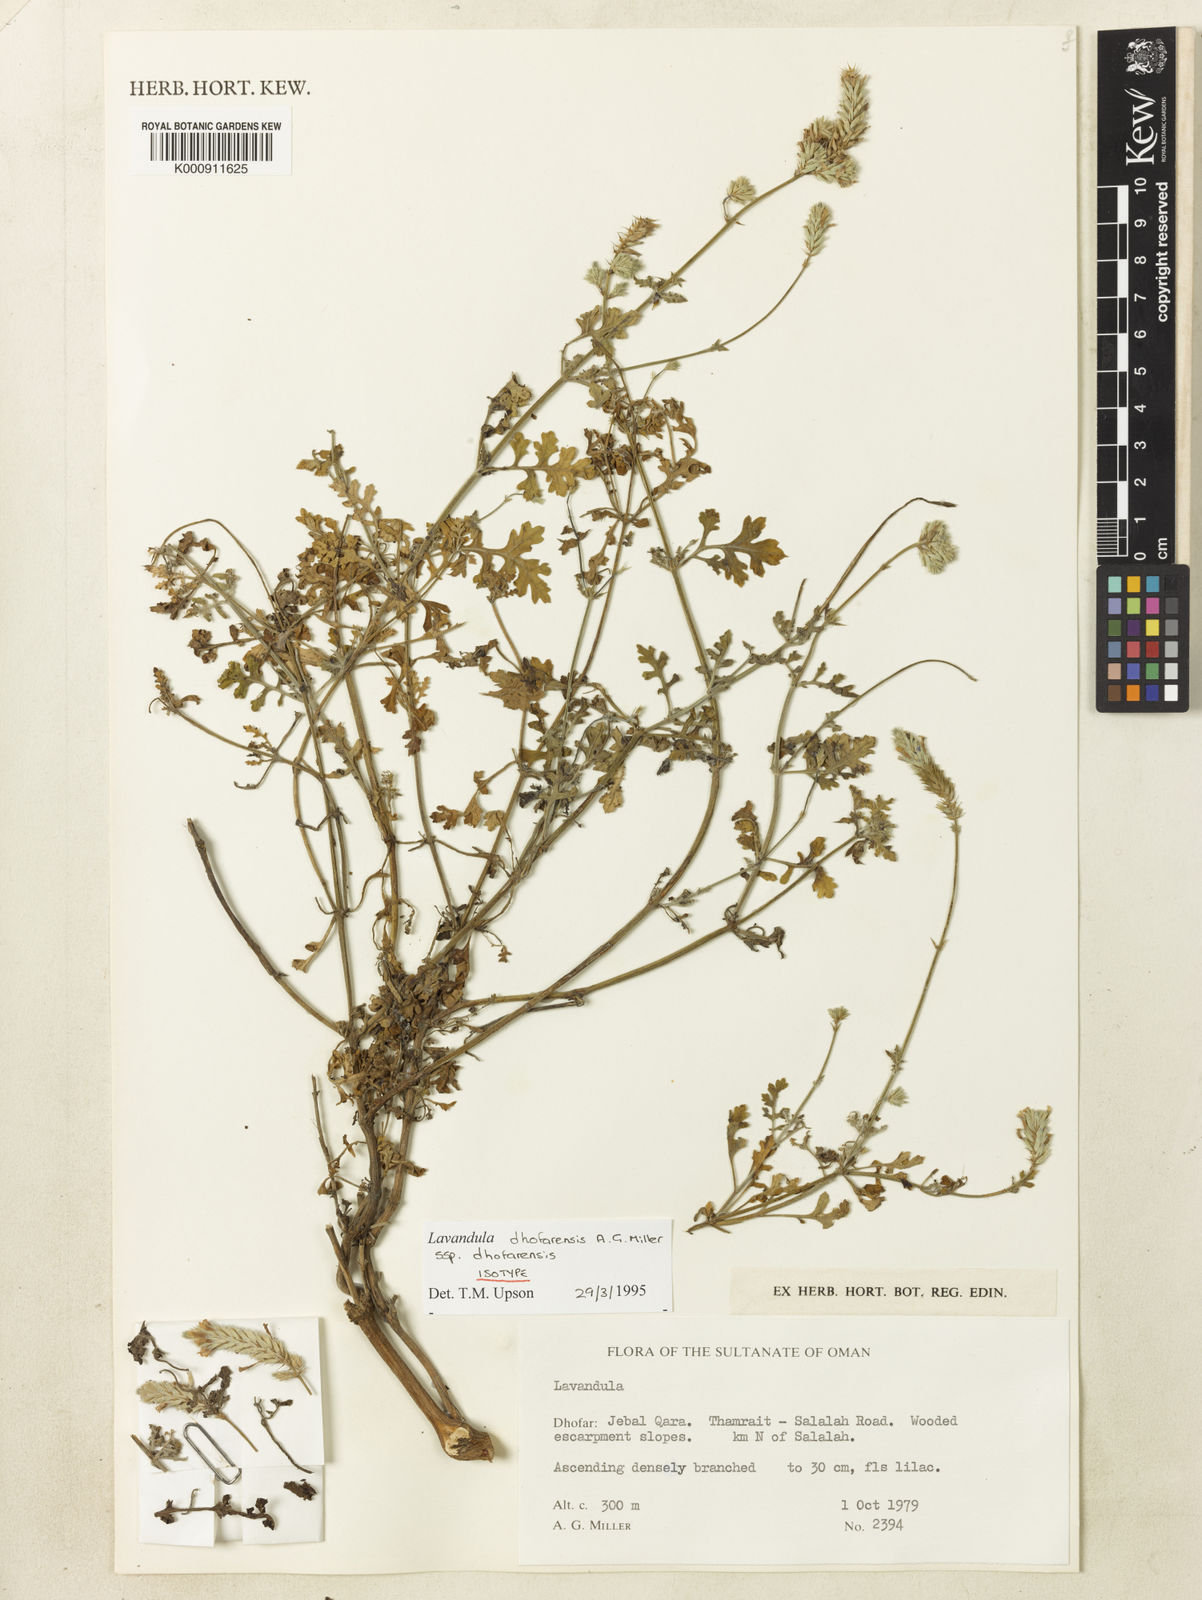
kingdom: Plantae
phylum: Tracheophyta
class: Magnoliopsida
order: Lamiales
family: Lamiaceae
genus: Lavandula
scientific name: Lavandula dhofarensis
